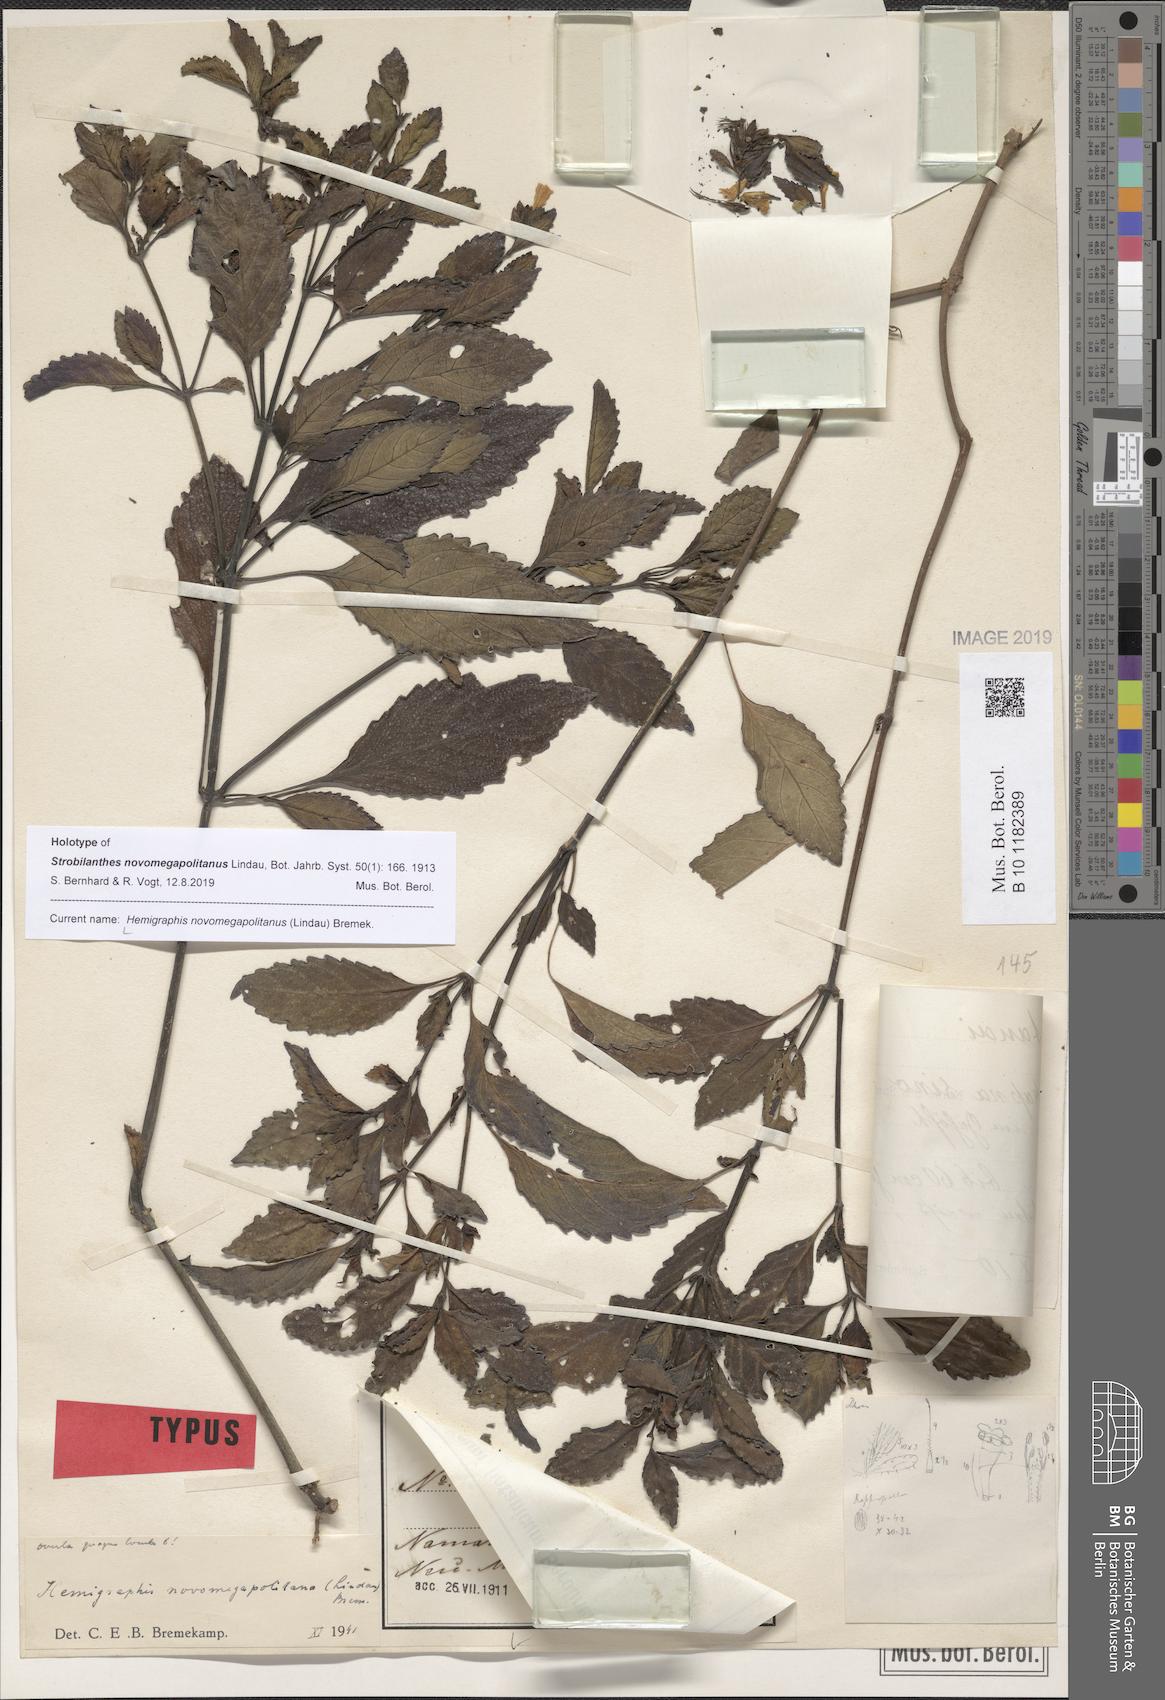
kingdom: Plantae
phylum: Tracheophyta
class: Magnoliopsida
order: Lamiales
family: Acanthaceae
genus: Strobilanthes
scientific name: Strobilanthes novomegapolitana
